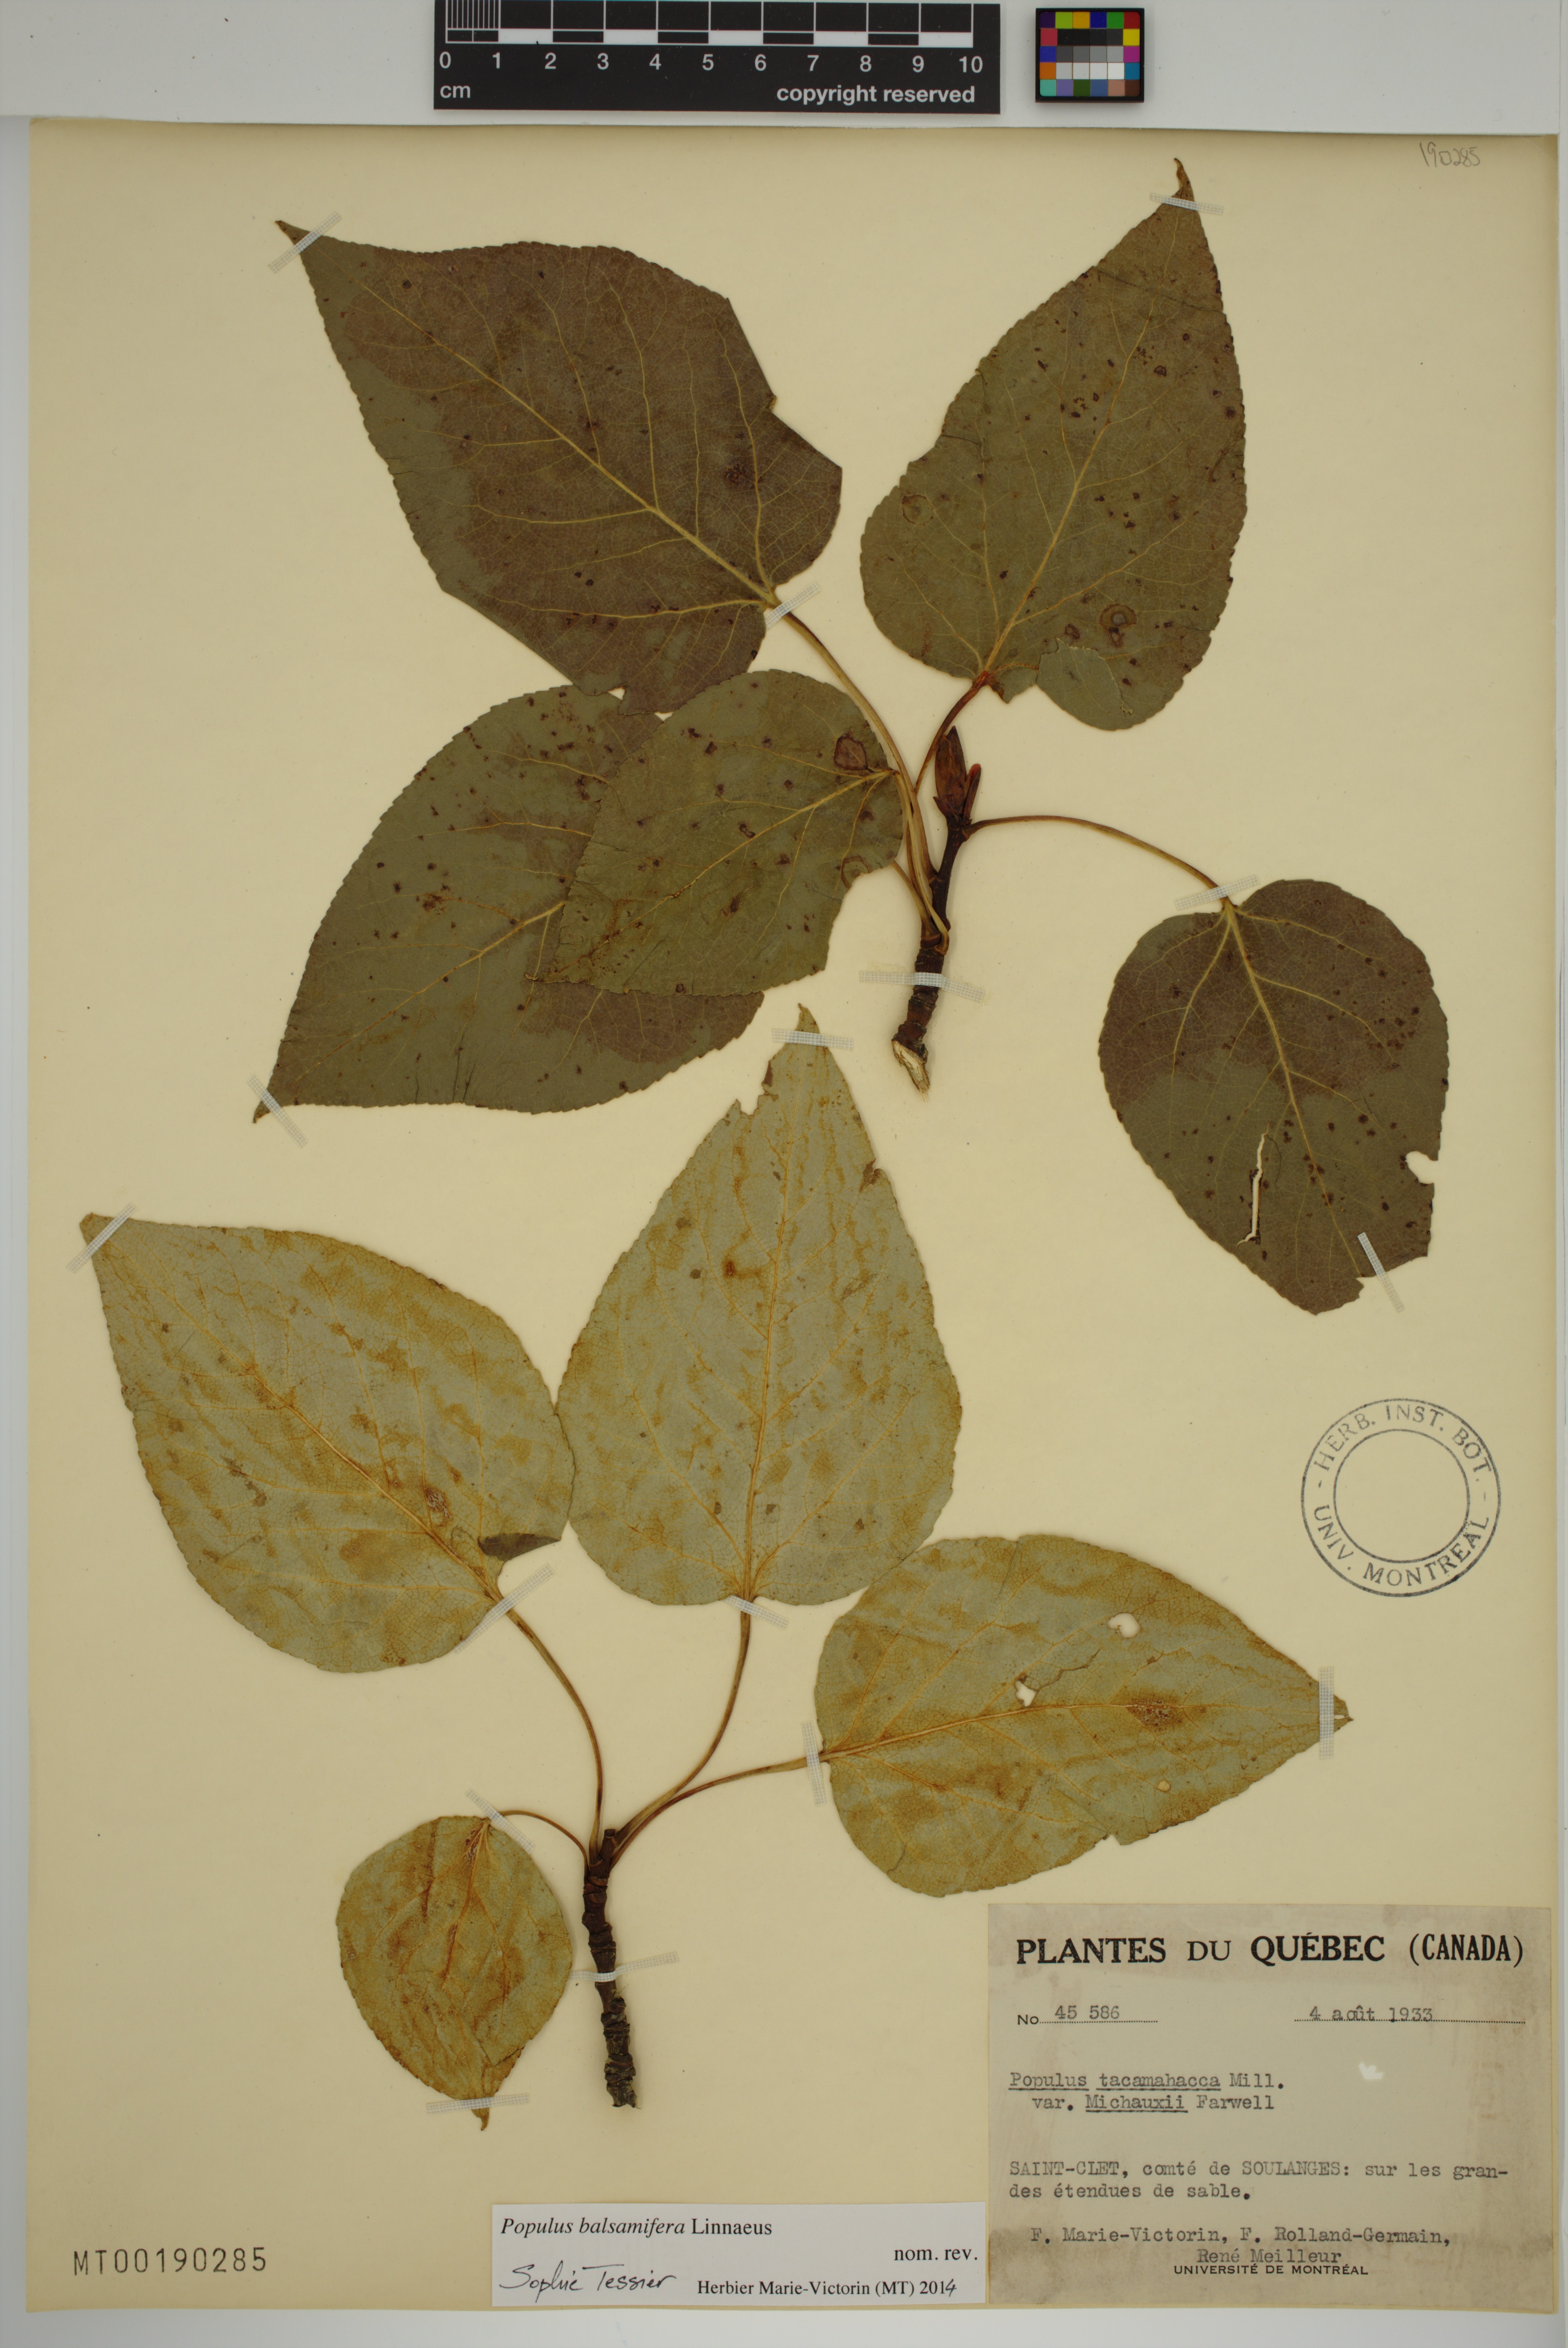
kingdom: Plantae
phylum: Tracheophyta
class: Magnoliopsida
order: Malpighiales
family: Salicaceae
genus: Populus
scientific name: Populus balsamifera
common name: Balsam poplar
